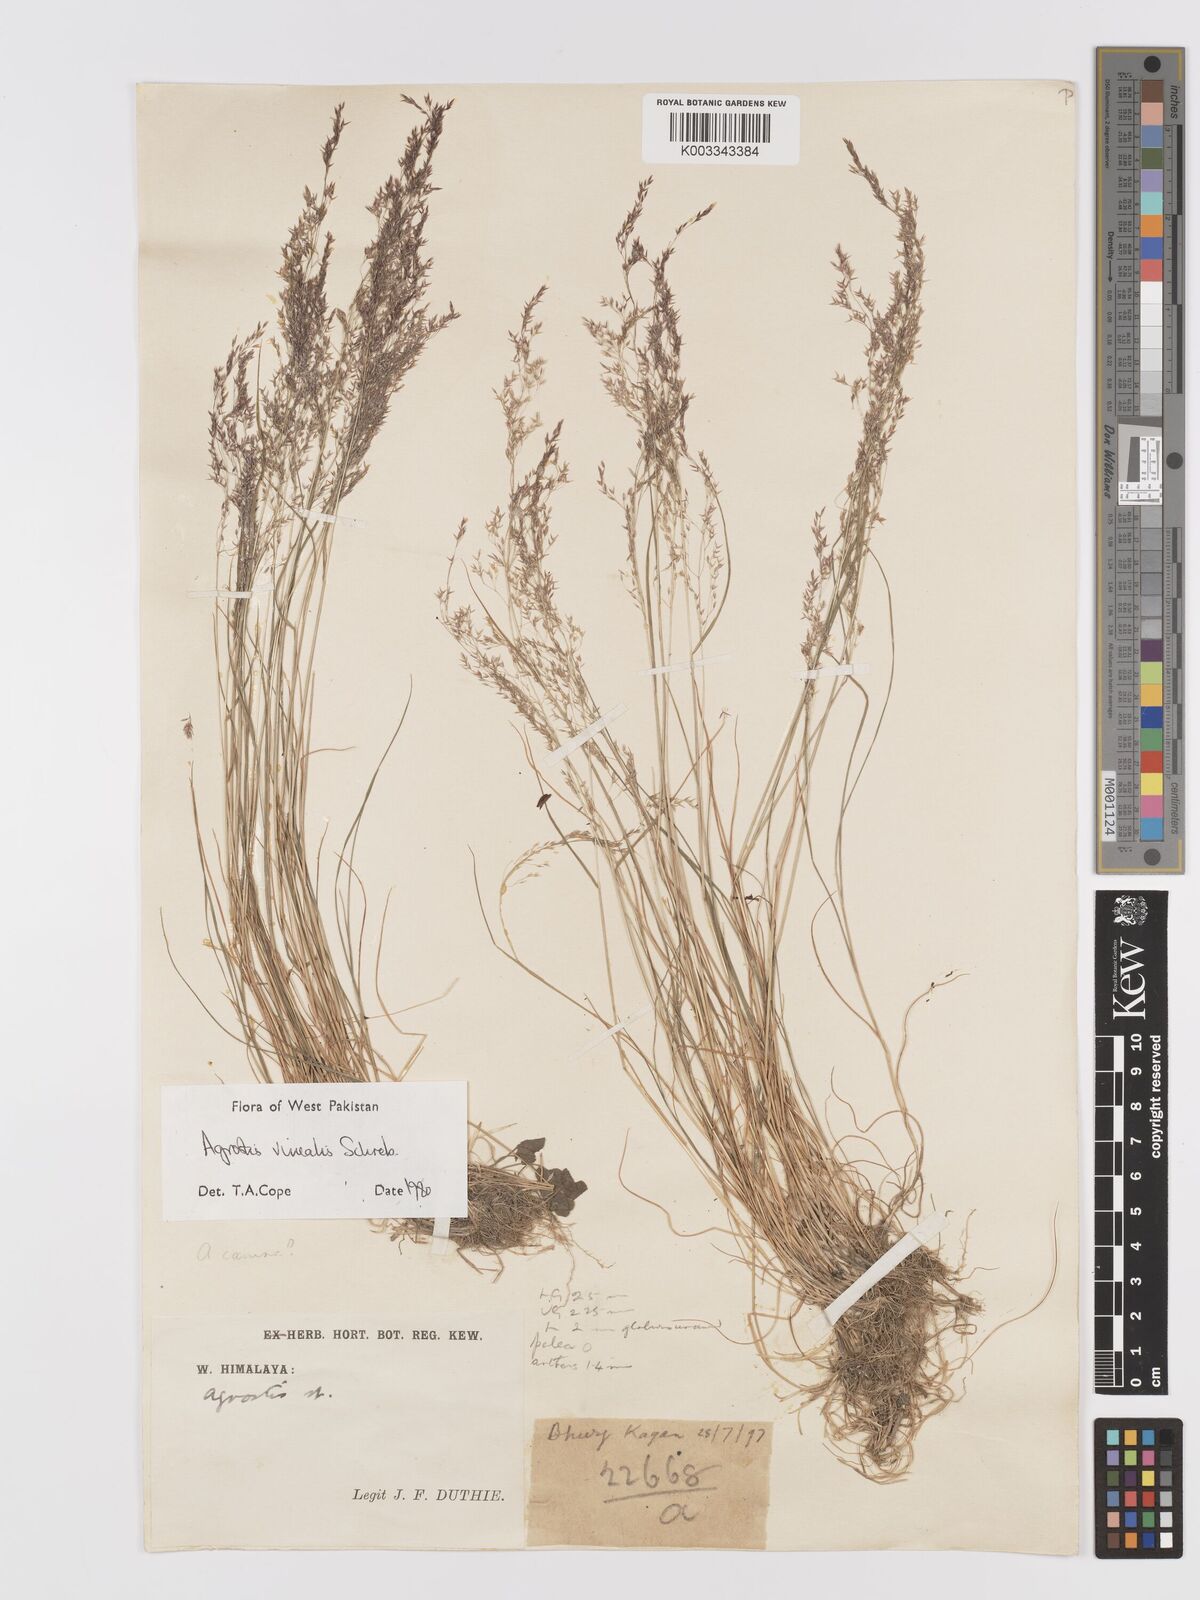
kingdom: Plantae
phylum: Tracheophyta
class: Liliopsida
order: Poales
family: Poaceae
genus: Agrostis
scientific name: Agrostis vinealis
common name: Brown bent
